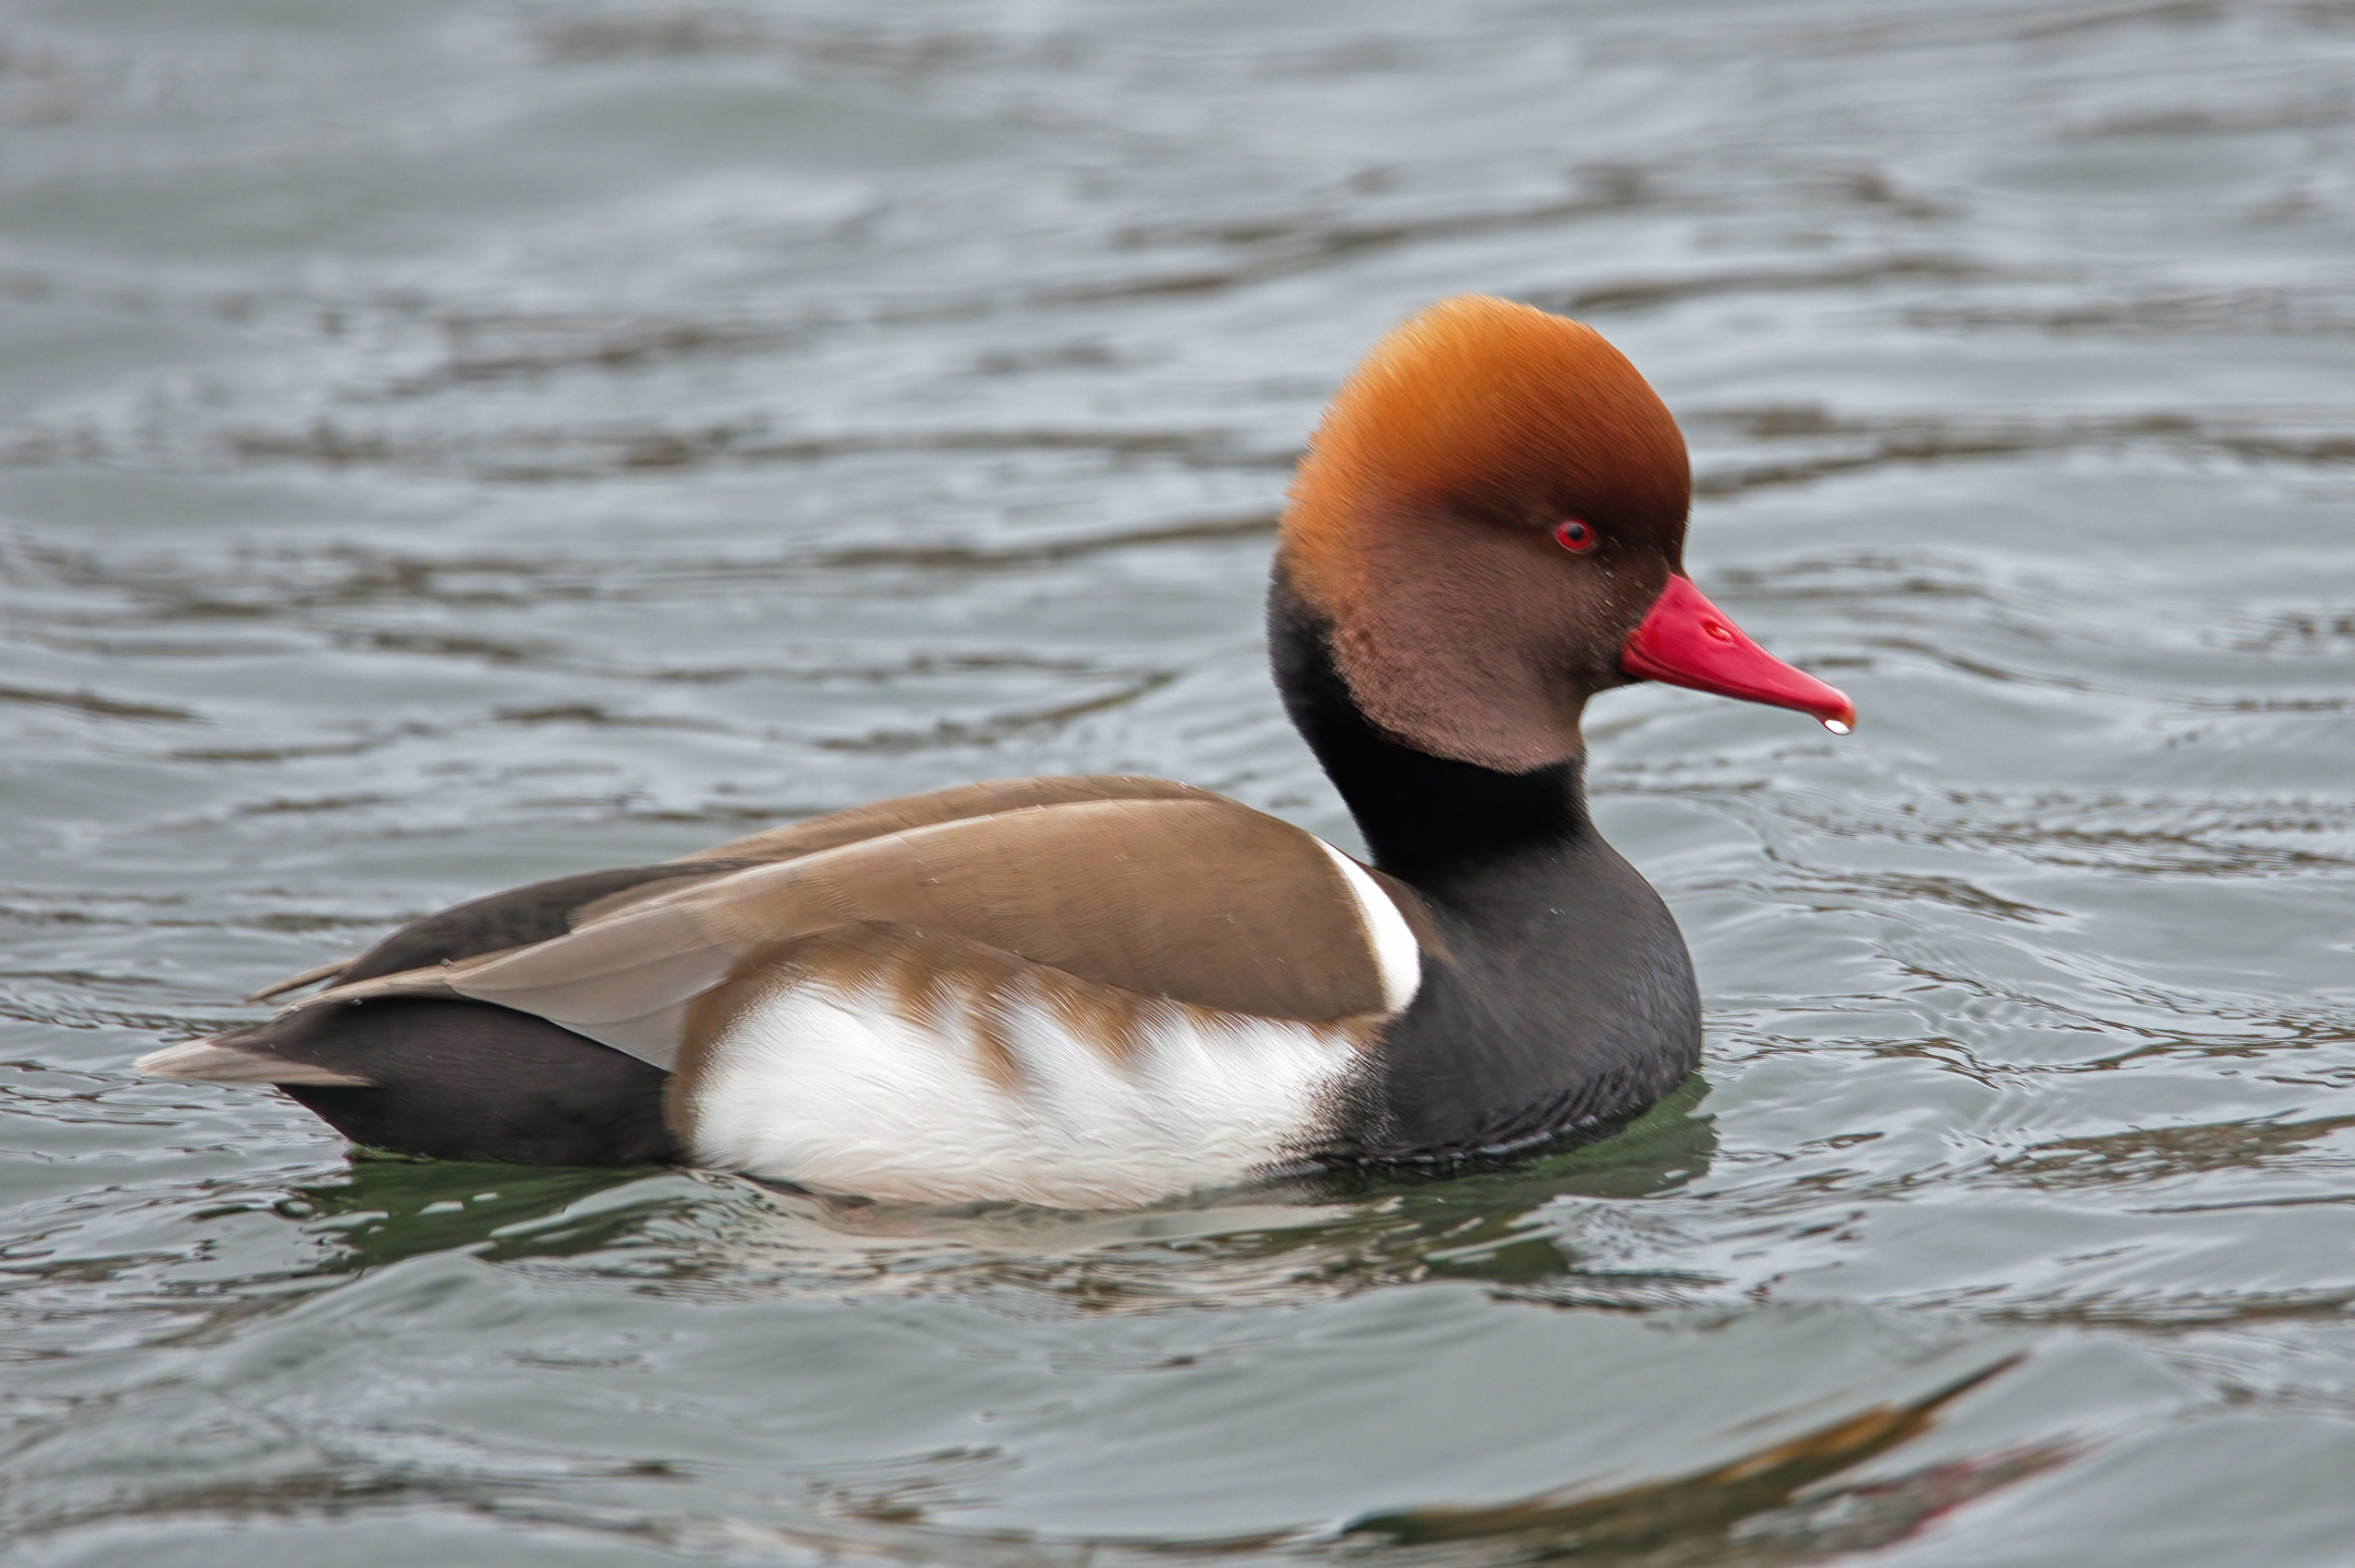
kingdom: Animalia
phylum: Chordata
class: Aves
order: Anseriformes
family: Anatidae
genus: Netta
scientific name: Netta rufina
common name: Rødhovedet and
